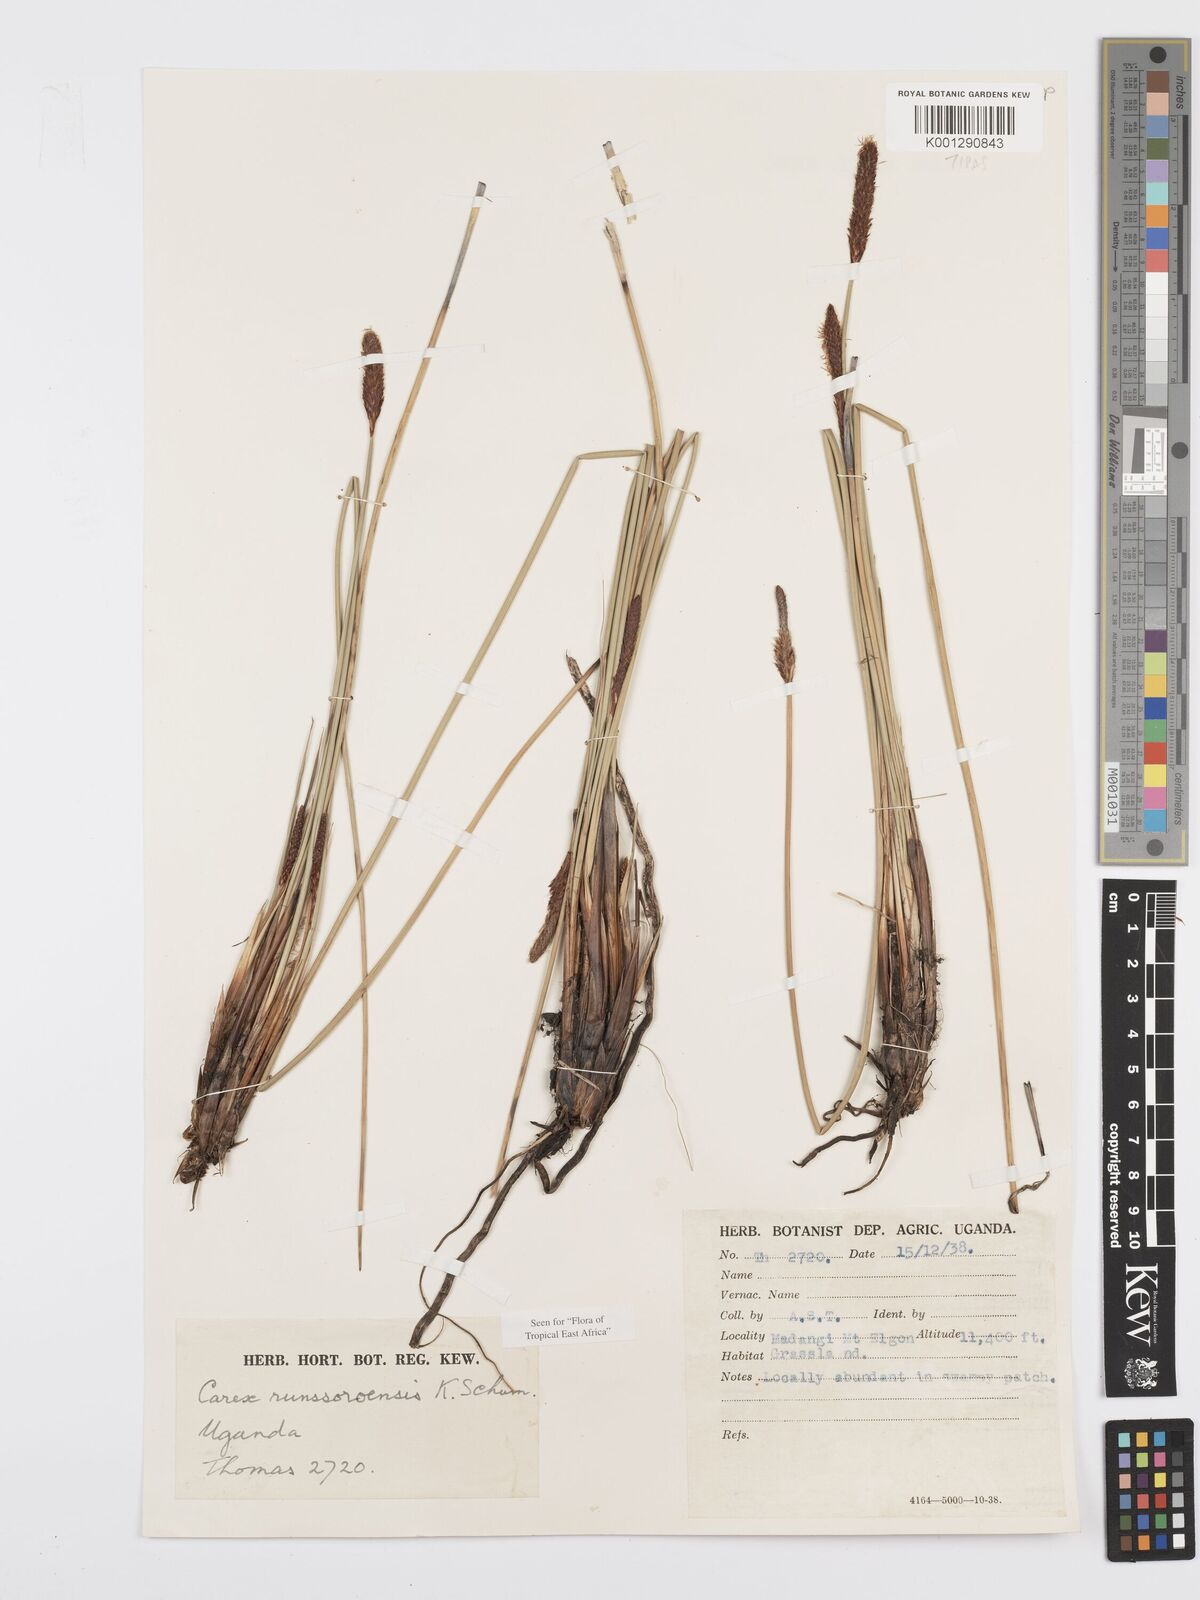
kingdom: Plantae
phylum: Tracheophyta
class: Liliopsida
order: Poales
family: Cyperaceae
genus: Carex
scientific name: Carex runssoroensis
